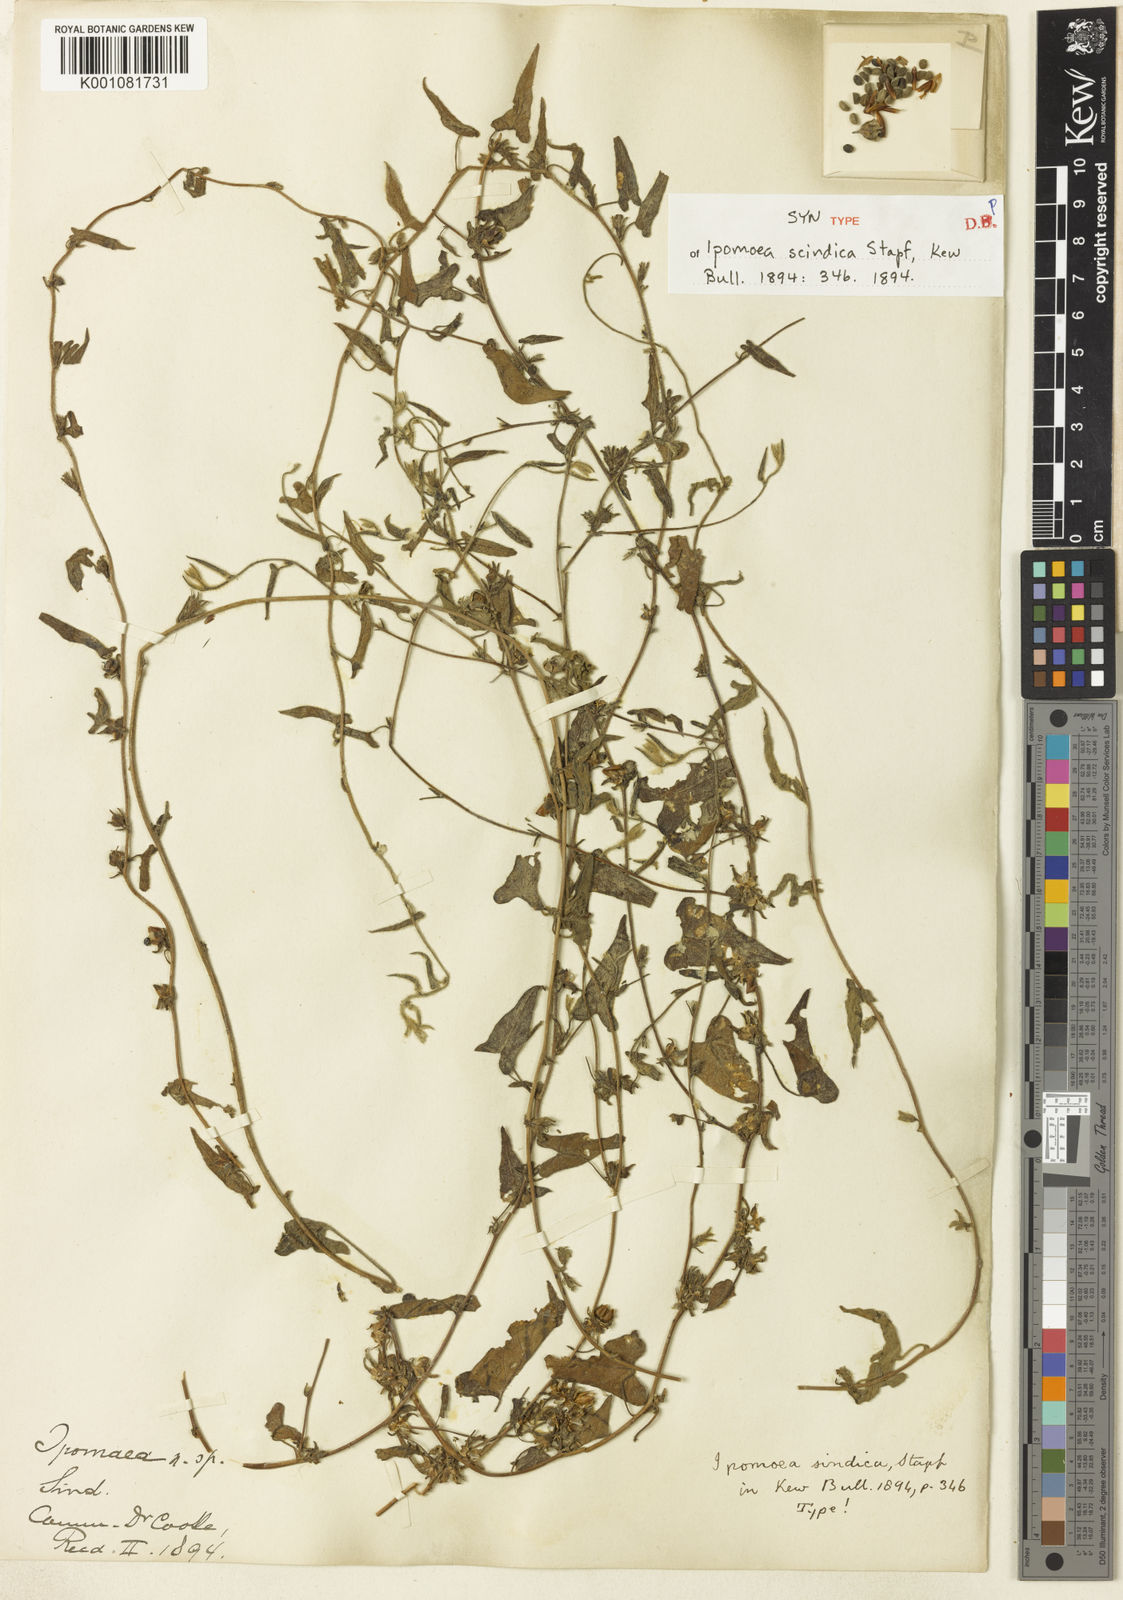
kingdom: Plantae
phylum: Tracheophyta
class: Magnoliopsida
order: Solanales
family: Convolvulaceae
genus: Ipomoea
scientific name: Ipomoea eriocarpa
